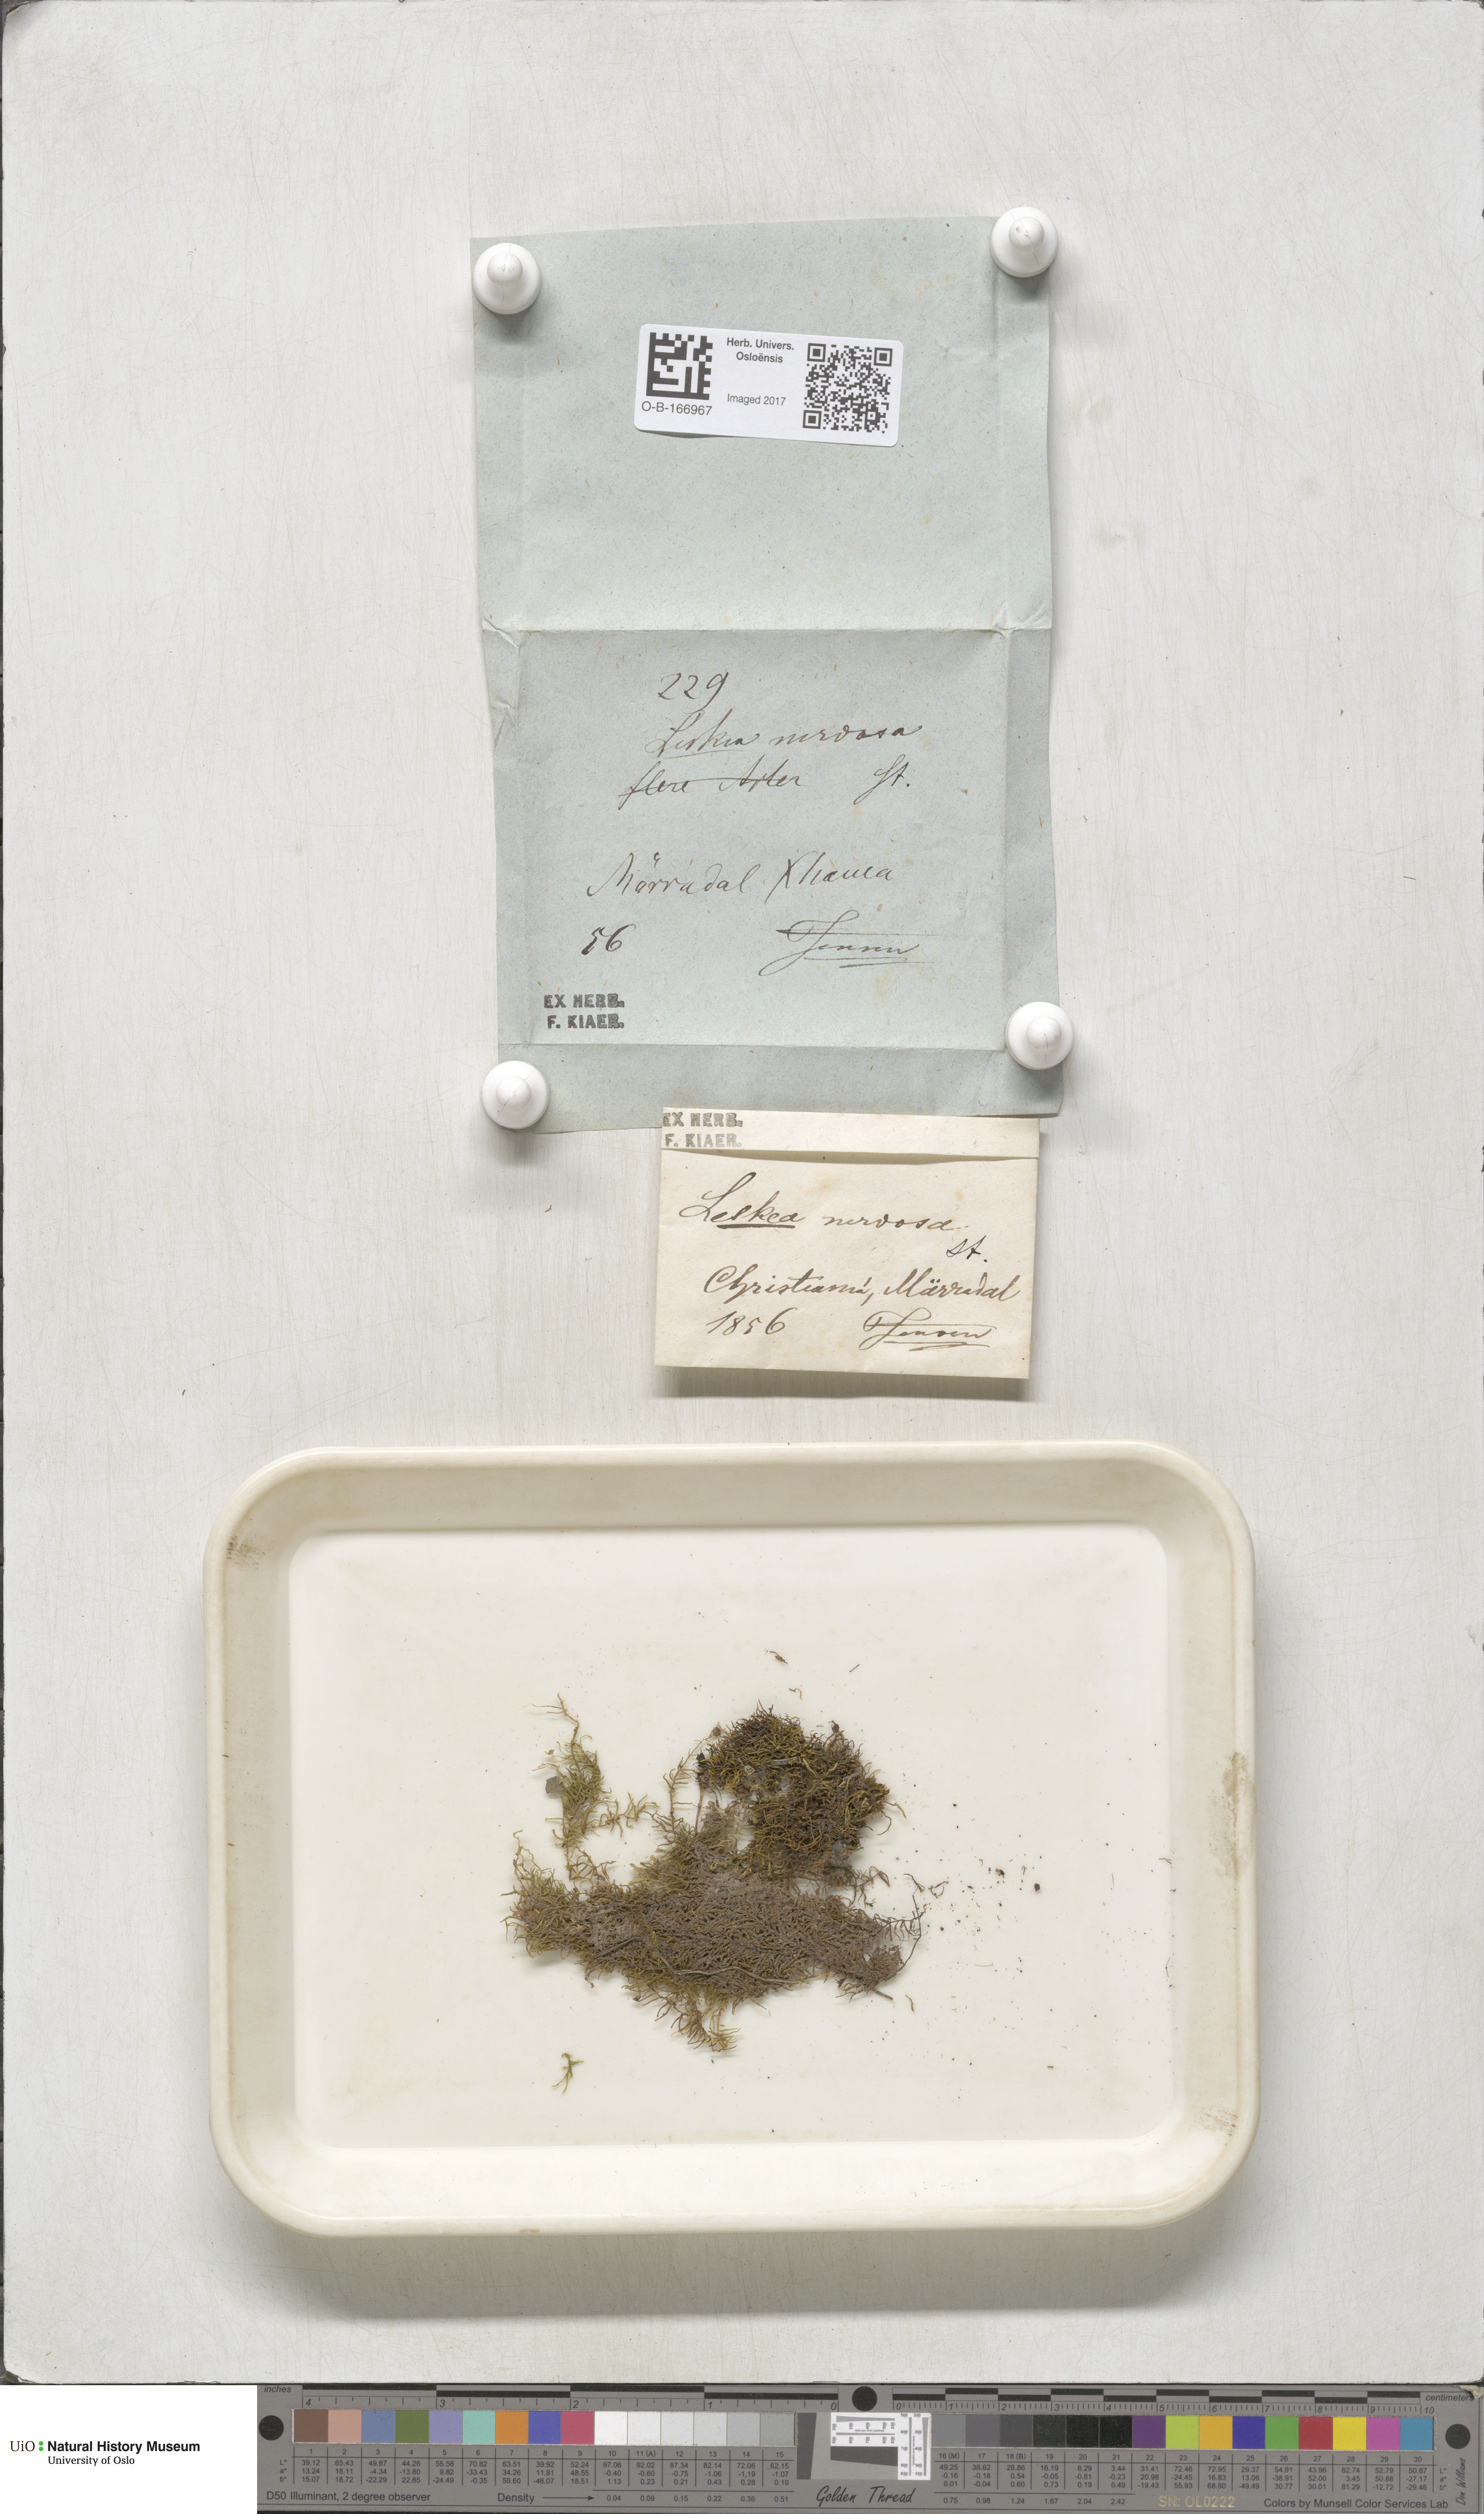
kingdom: Plantae
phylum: Bryophyta
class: Bryopsida
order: Hypnales
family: Pseudoleskeellaceae
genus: Pseudoleskeella
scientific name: Pseudoleskeella nervosa
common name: Nerved leske's moss
